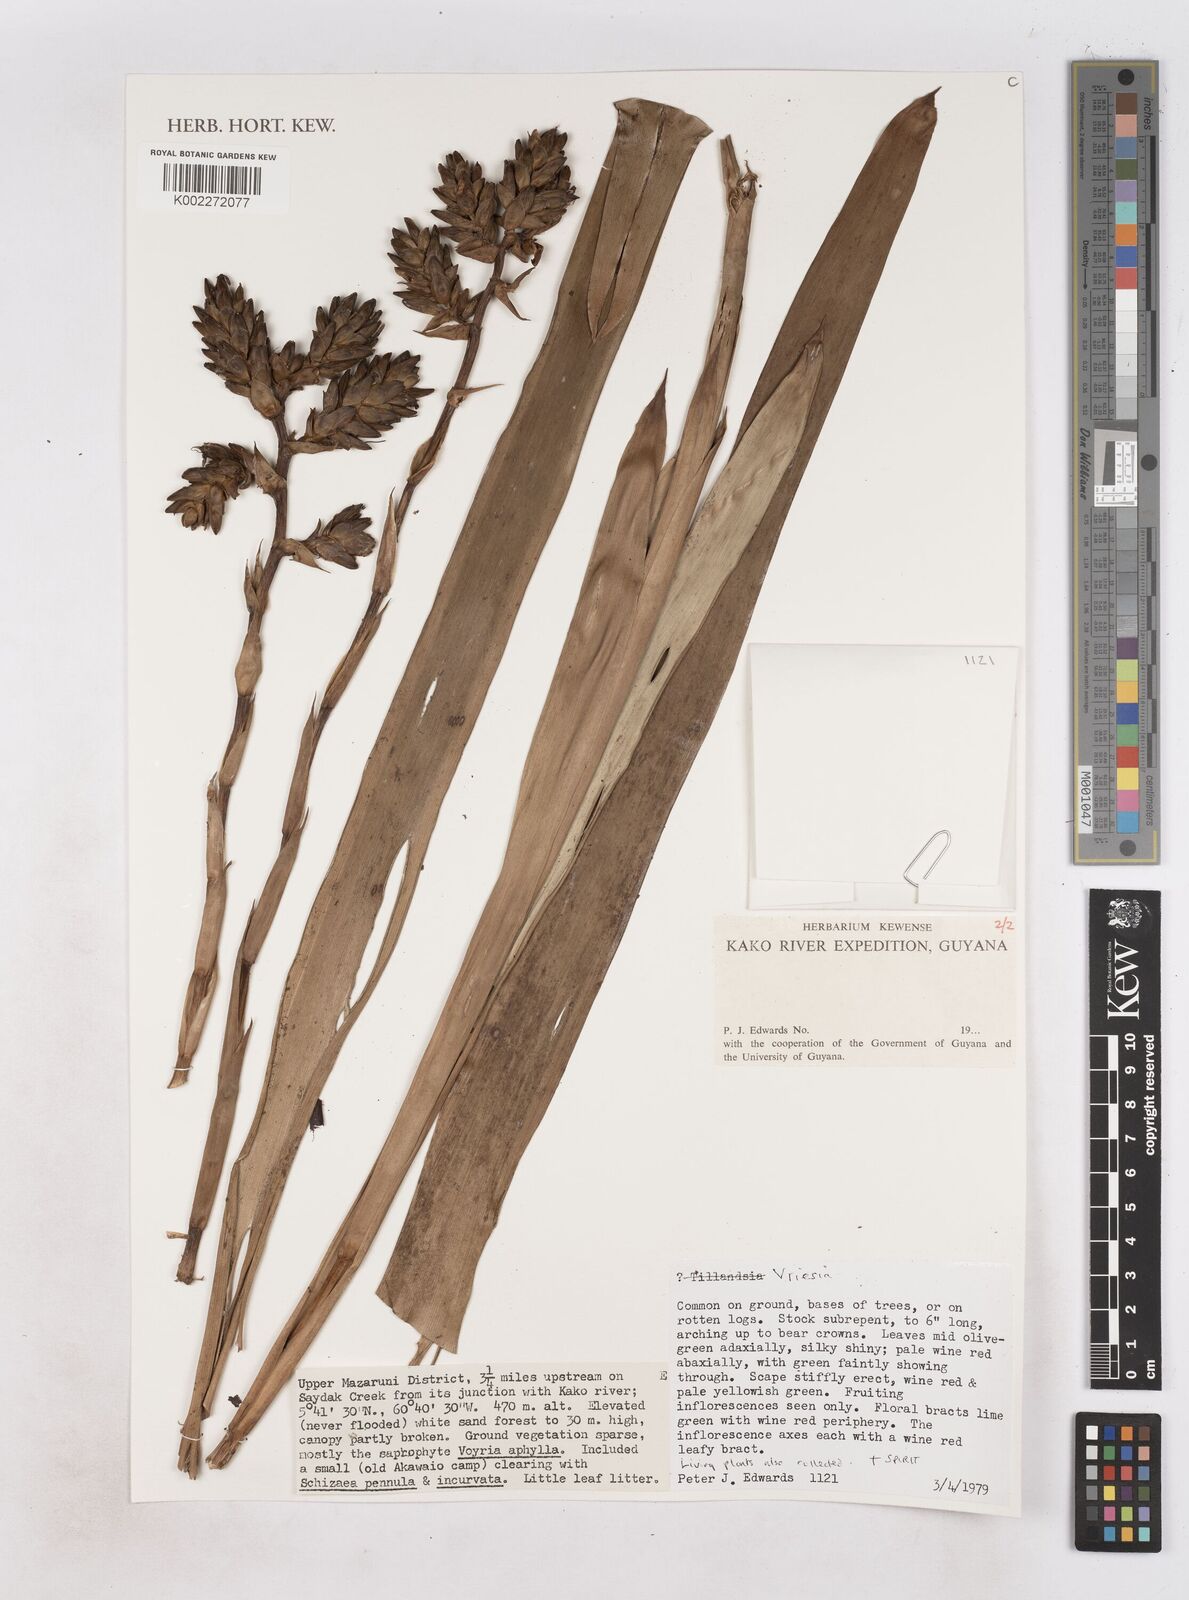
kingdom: Plantae
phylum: Tracheophyta
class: Liliopsida
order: Poales
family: Bromeliaceae
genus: Vriesea
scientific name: Vriesea
